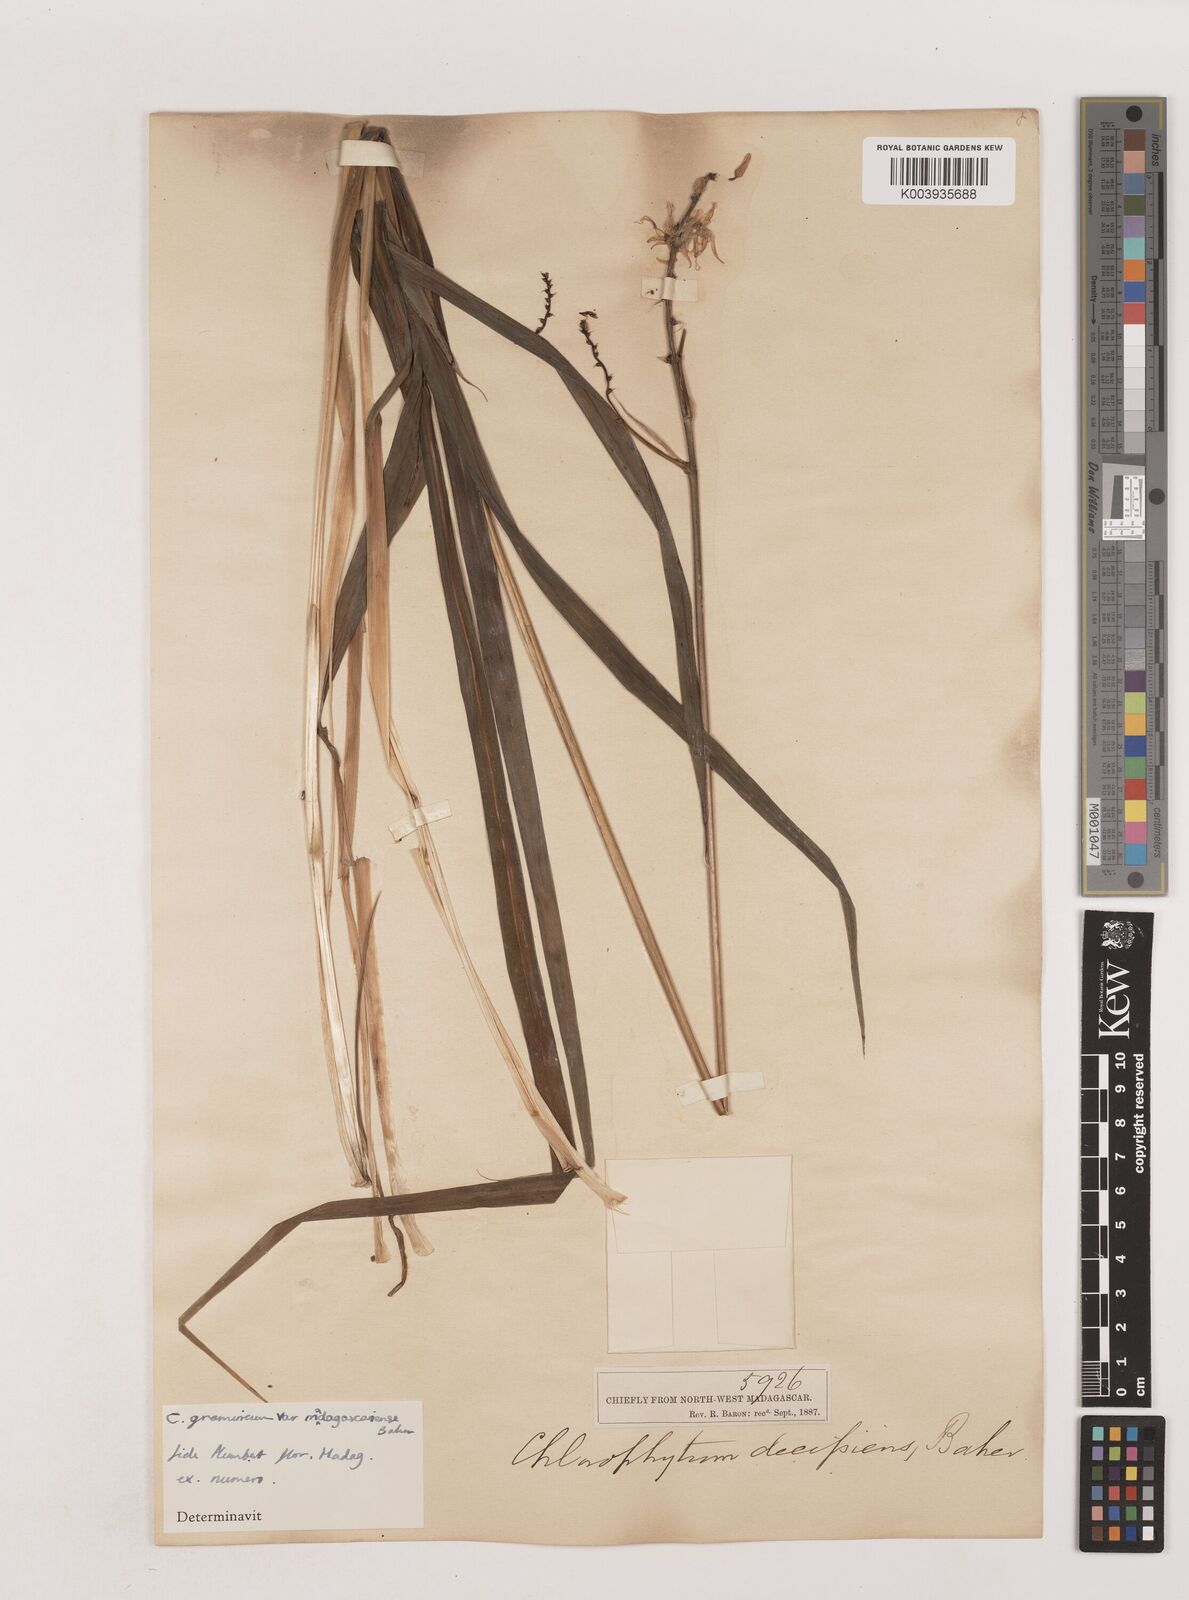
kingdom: Plantae
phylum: Tracheophyta
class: Liliopsida
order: Asparagales
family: Asparagaceae
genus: Chlorophytum
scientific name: Chlorophytum madagascariense
